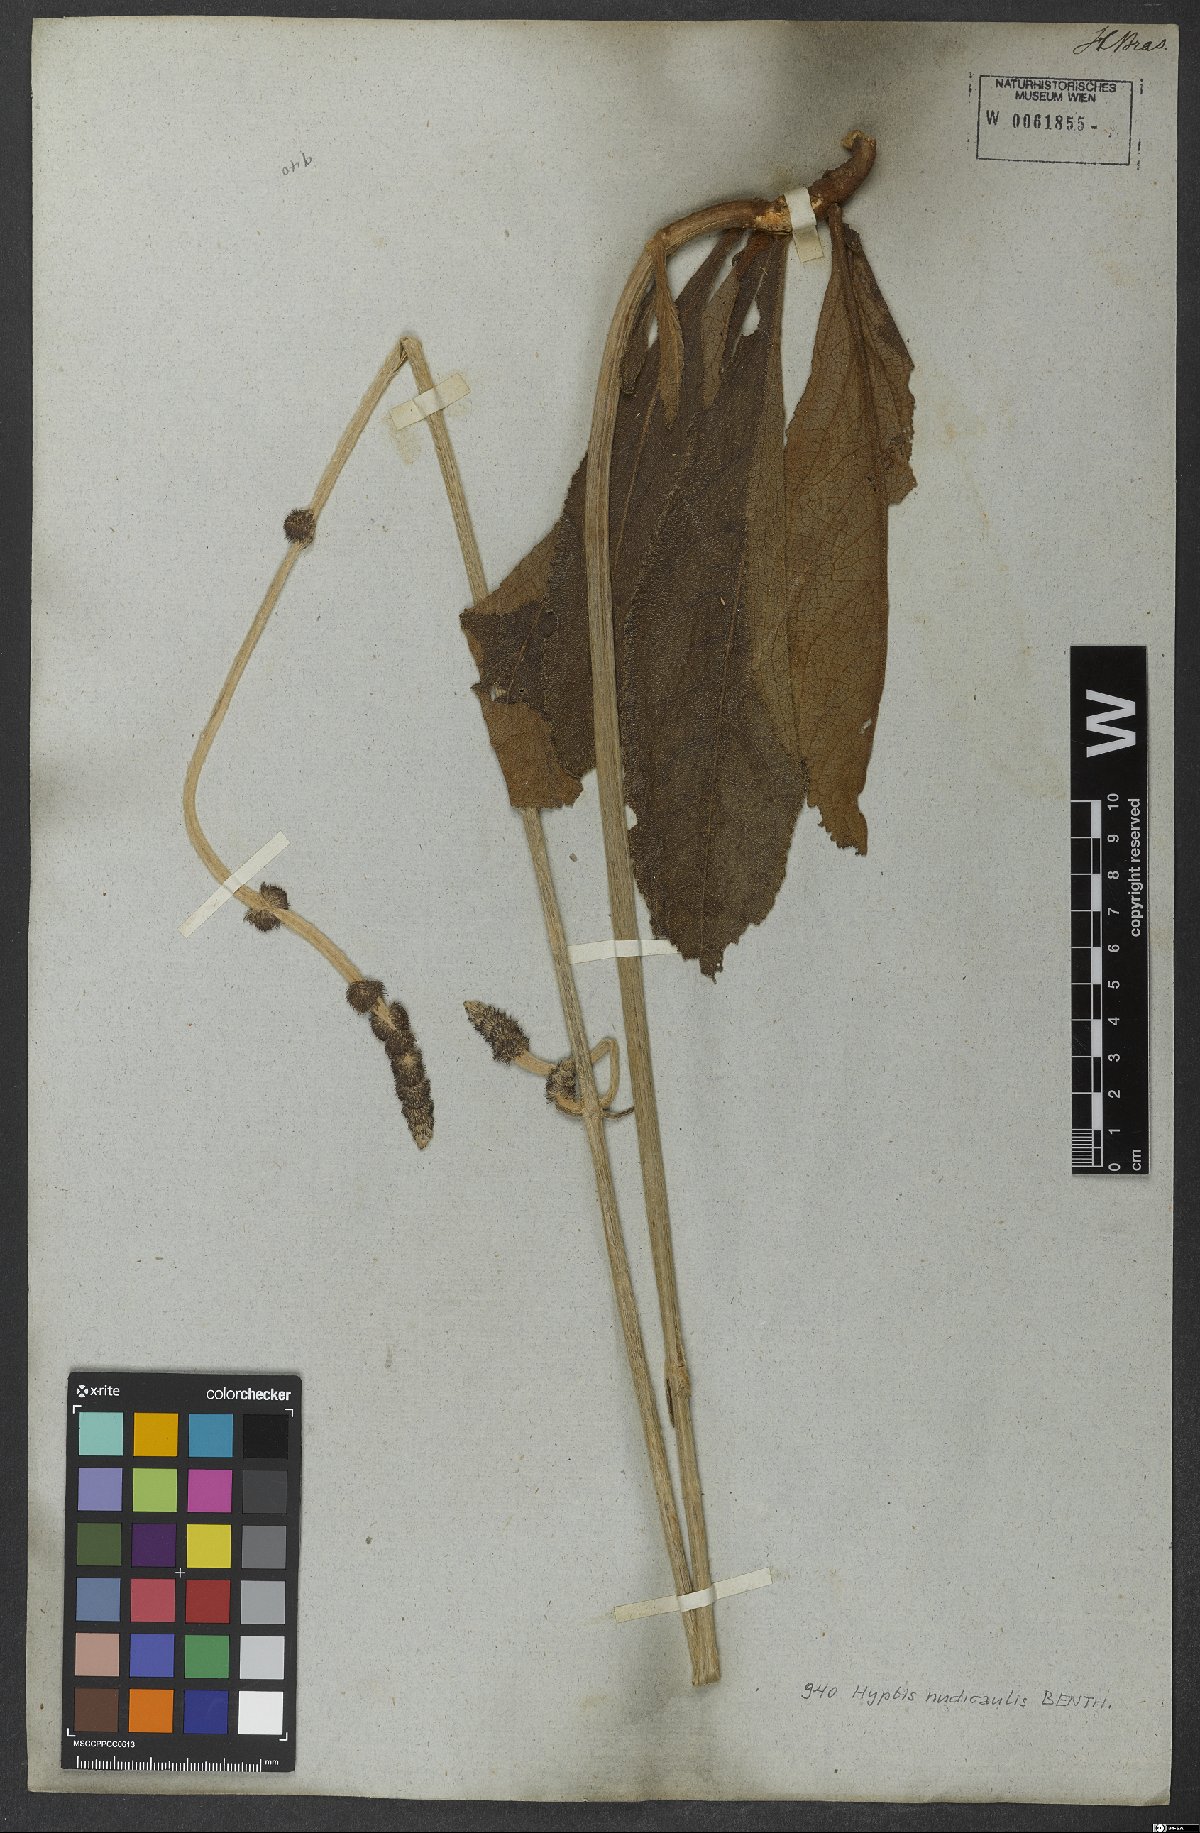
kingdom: Plantae
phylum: Tracheophyta
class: Magnoliopsida
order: Lamiales
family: Lamiaceae
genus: Hyptis
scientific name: Hyptis nudicaulis
